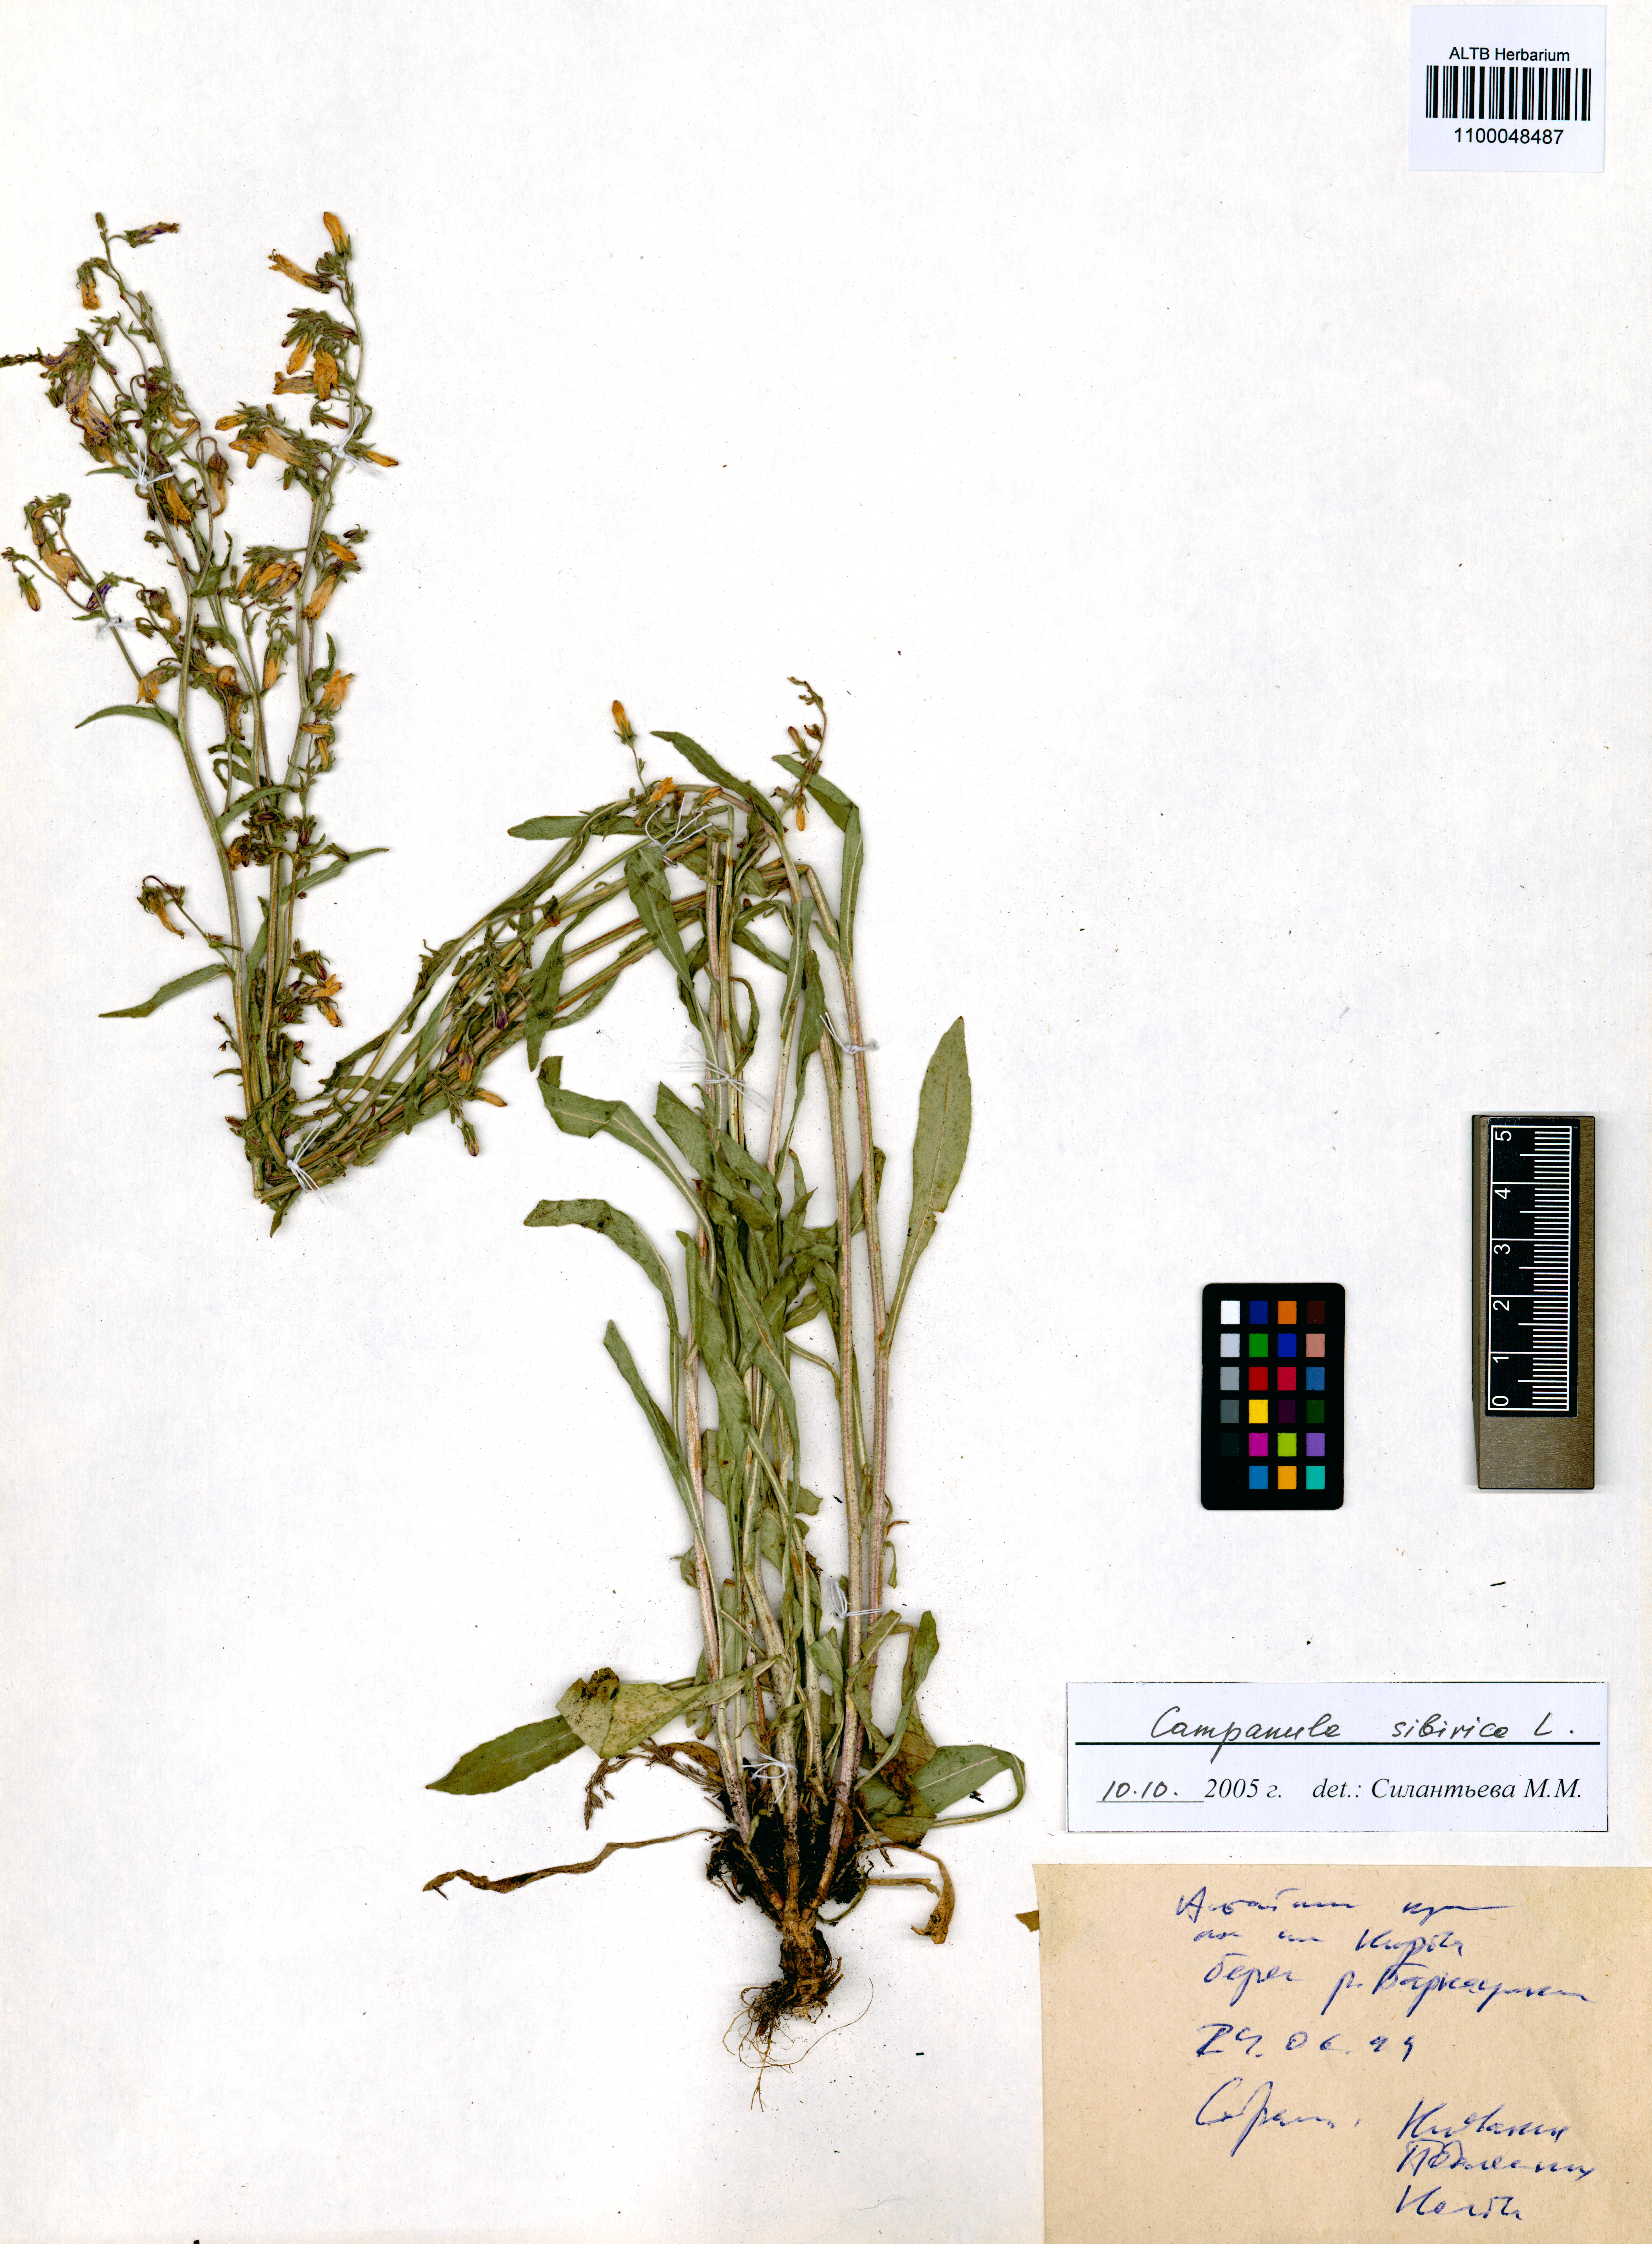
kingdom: Plantae
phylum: Tracheophyta
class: Magnoliopsida
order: Asterales
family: Campanulaceae
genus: Campanula
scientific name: Campanula sibirica
